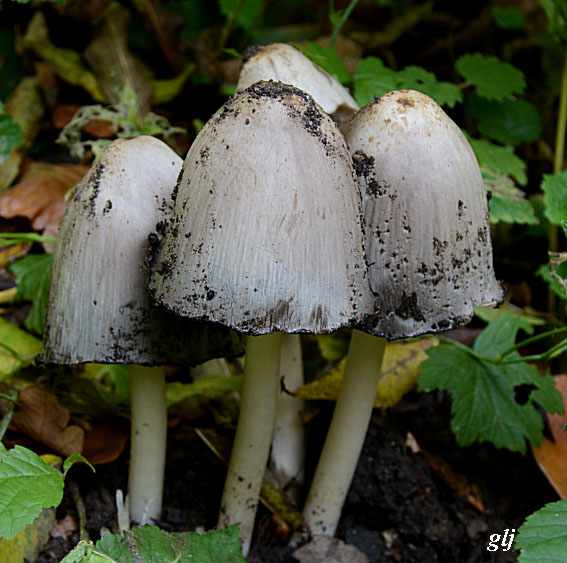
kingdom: Fungi
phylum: Basidiomycota
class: Agaricomycetes
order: Agaricales
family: Psathyrellaceae
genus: Coprinopsis
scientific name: Coprinopsis atramentaria
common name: almindelig blækhat
